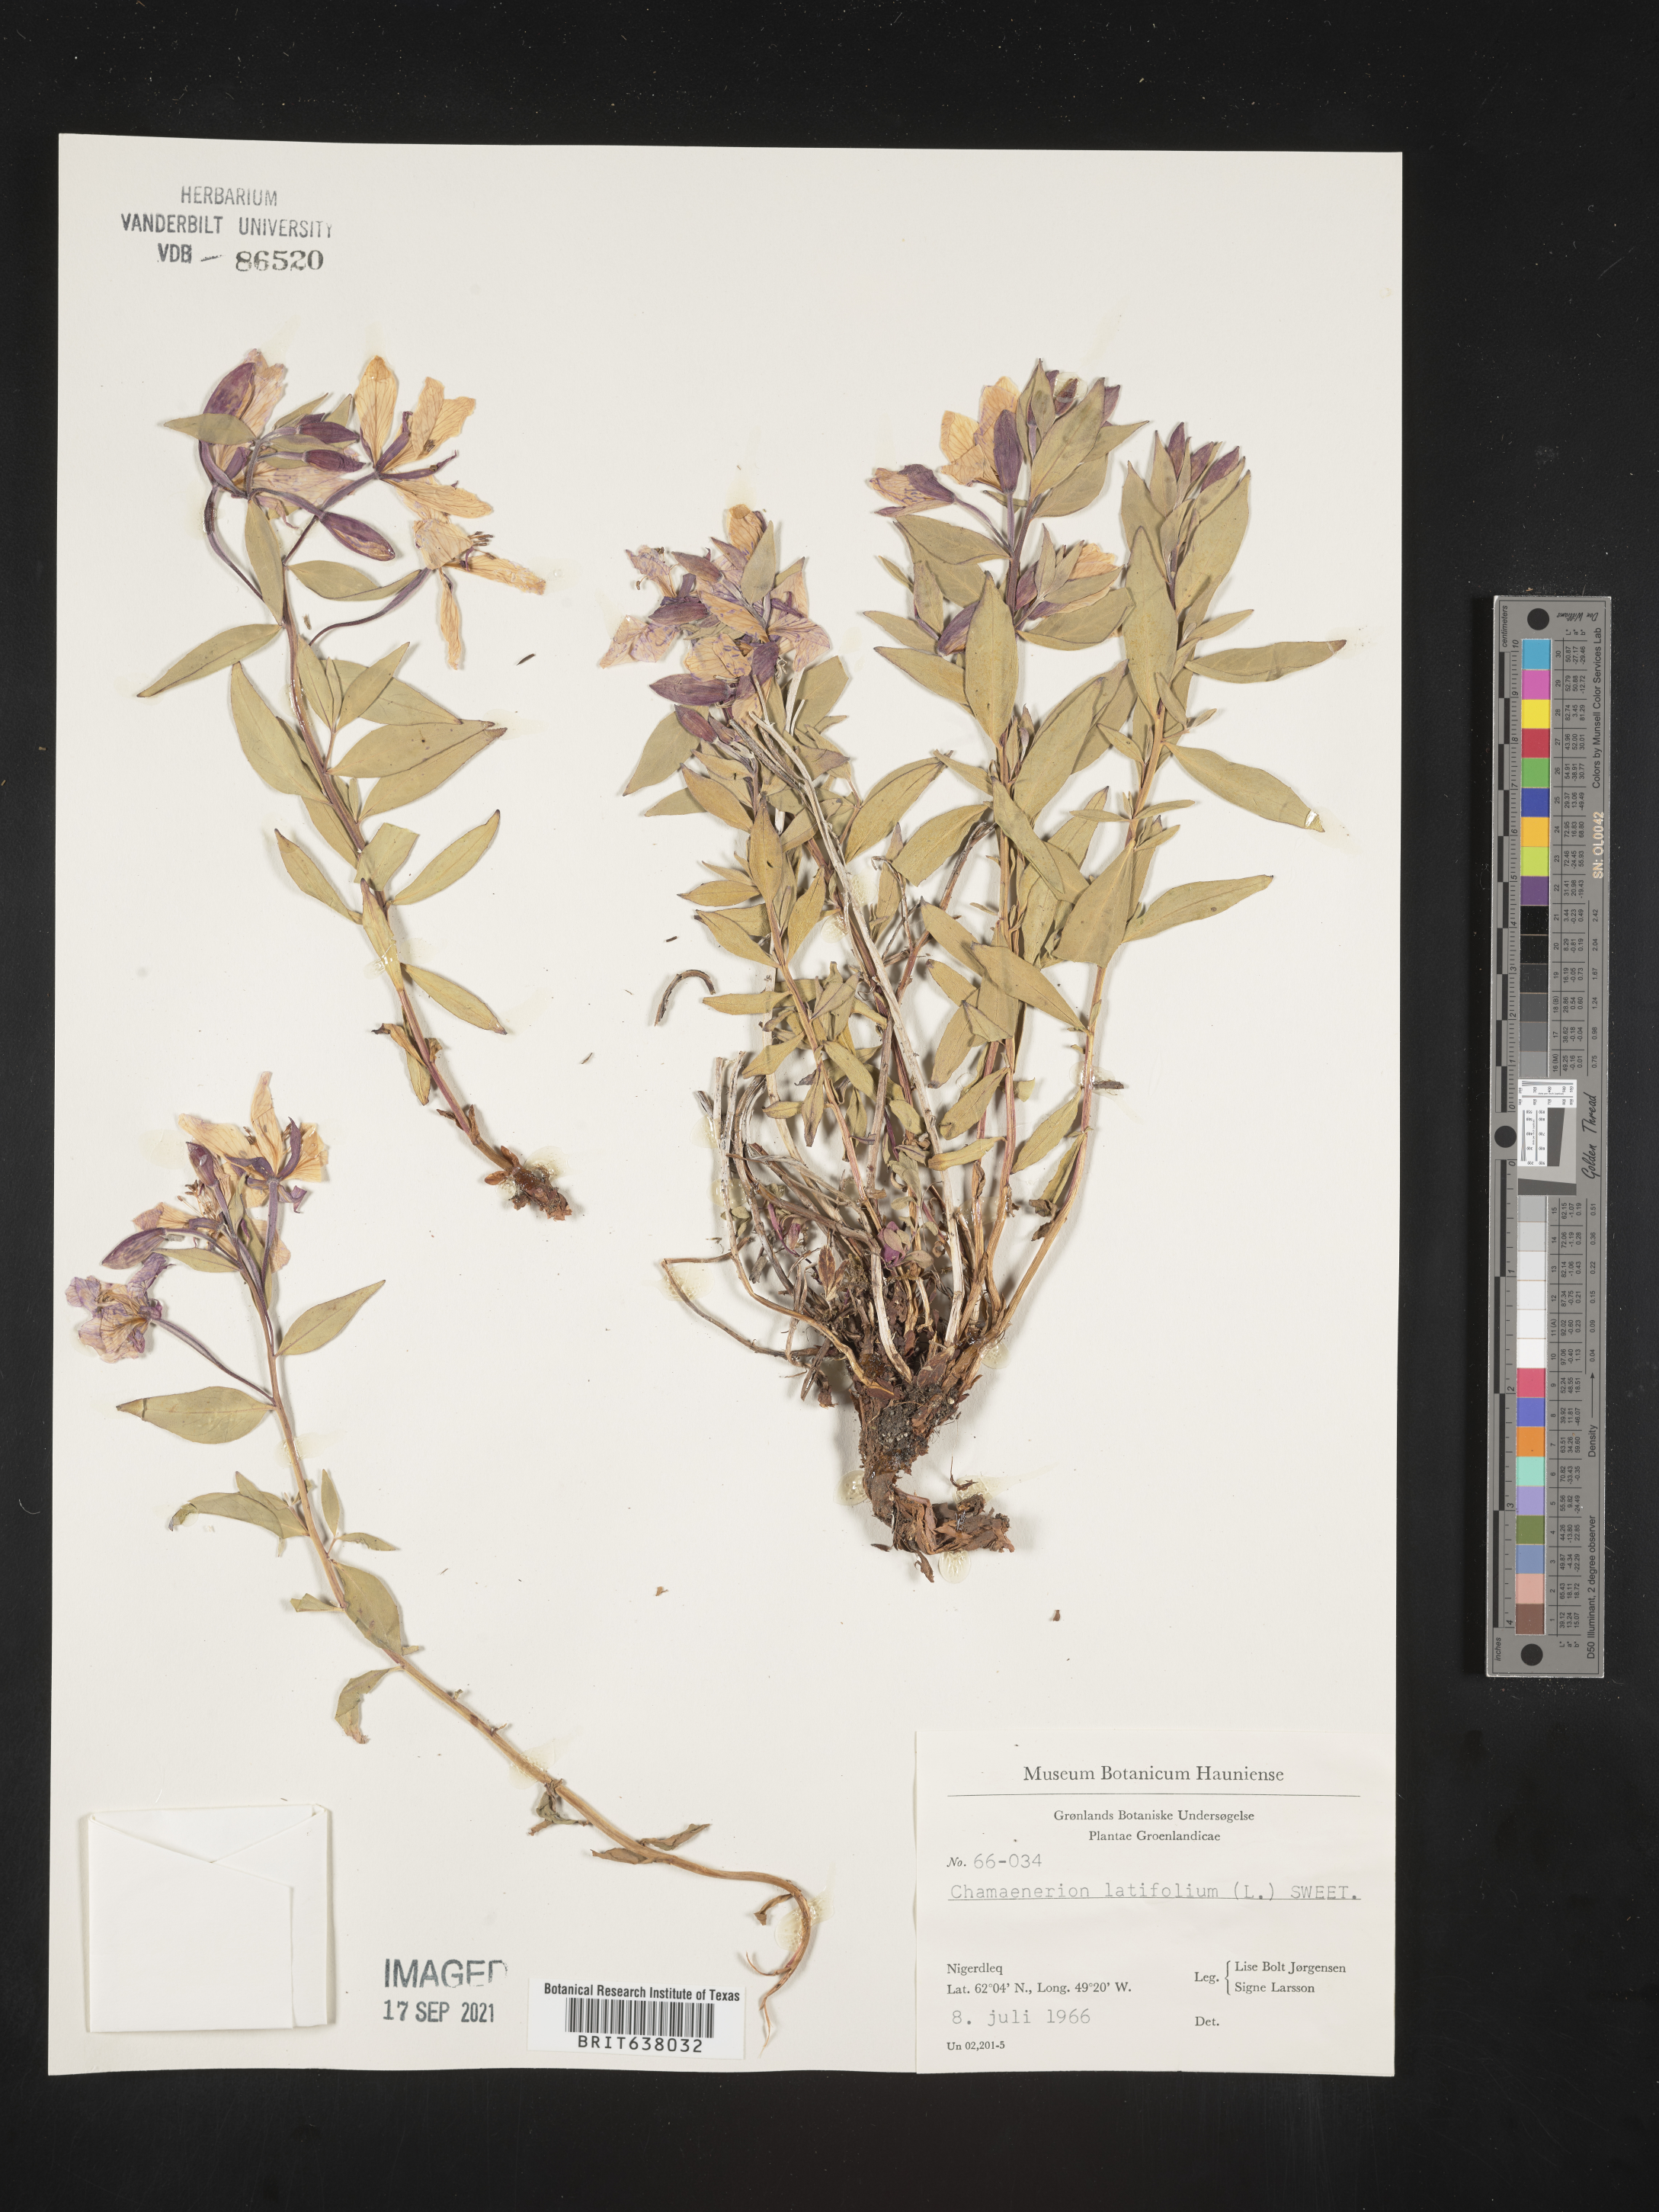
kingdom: Plantae
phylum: Tracheophyta
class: Magnoliopsida
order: Myrtales
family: Onagraceae
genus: Chamaenerion
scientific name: Chamaenerion
